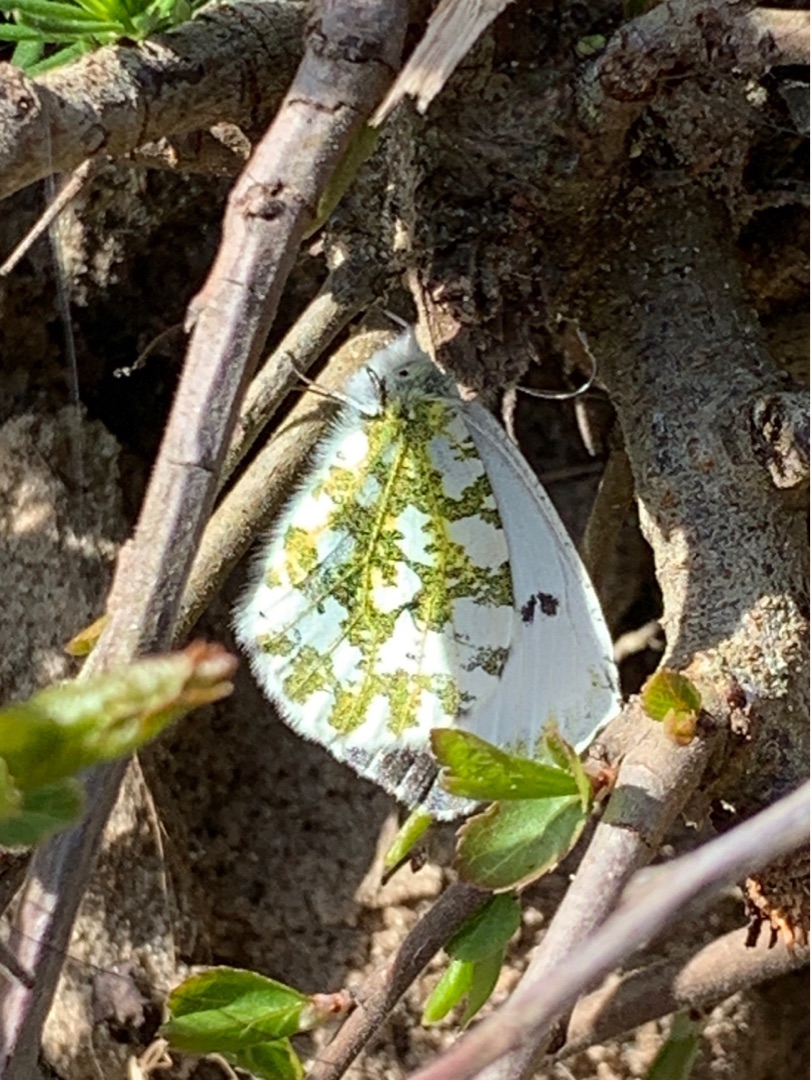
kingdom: Animalia
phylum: Arthropoda
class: Insecta
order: Lepidoptera
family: Pieridae
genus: Anthocharis
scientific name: Anthocharis cardamines
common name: Aurora
